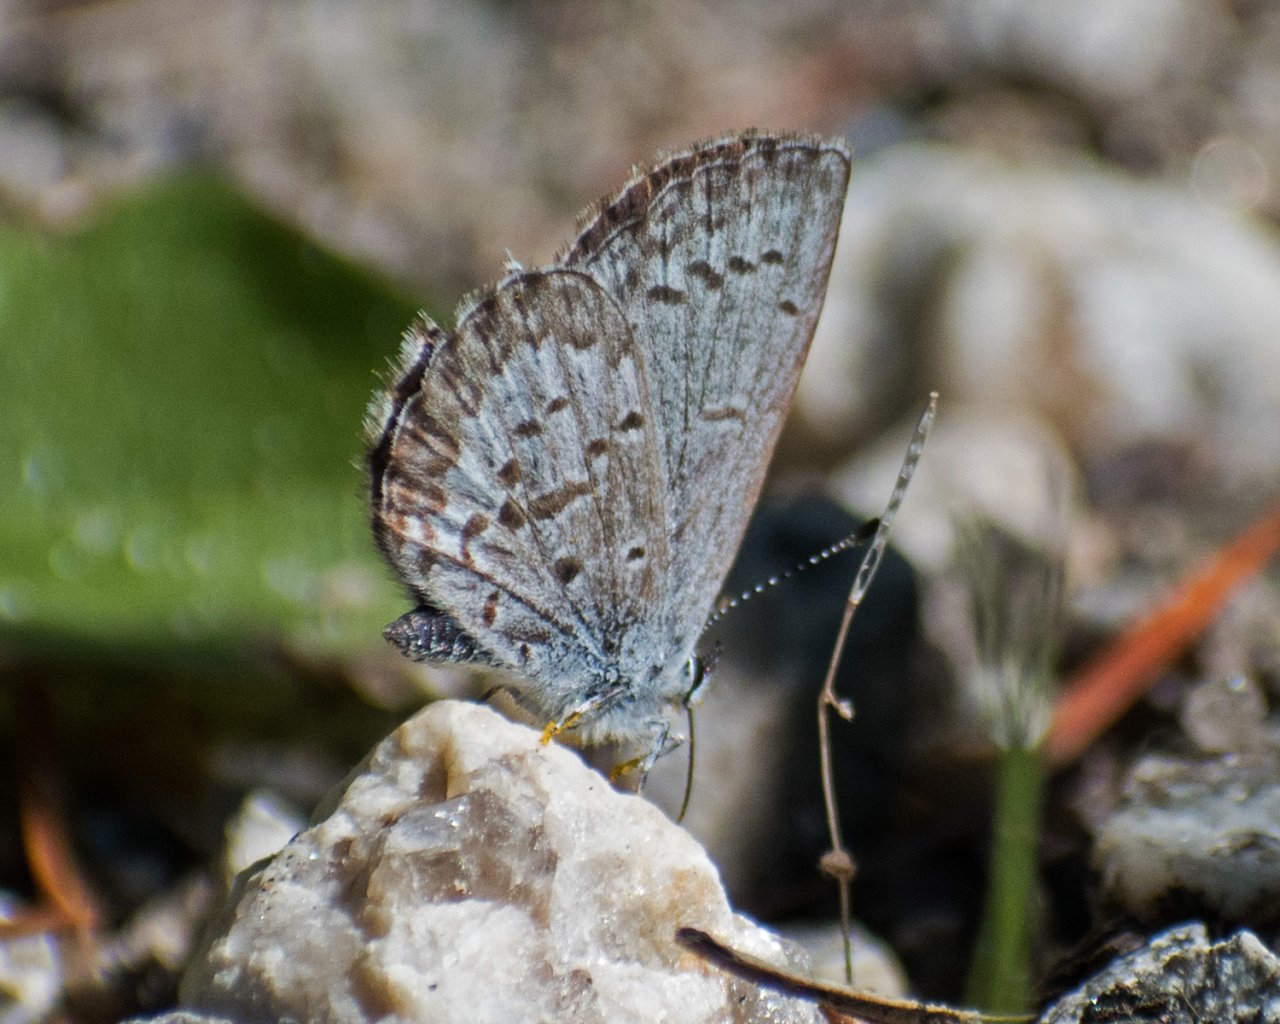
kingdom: Animalia
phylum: Arthropoda
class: Insecta
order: Lepidoptera
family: Lycaenidae
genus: Celastrina
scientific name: Celastrina ladon
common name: Echo Azure
